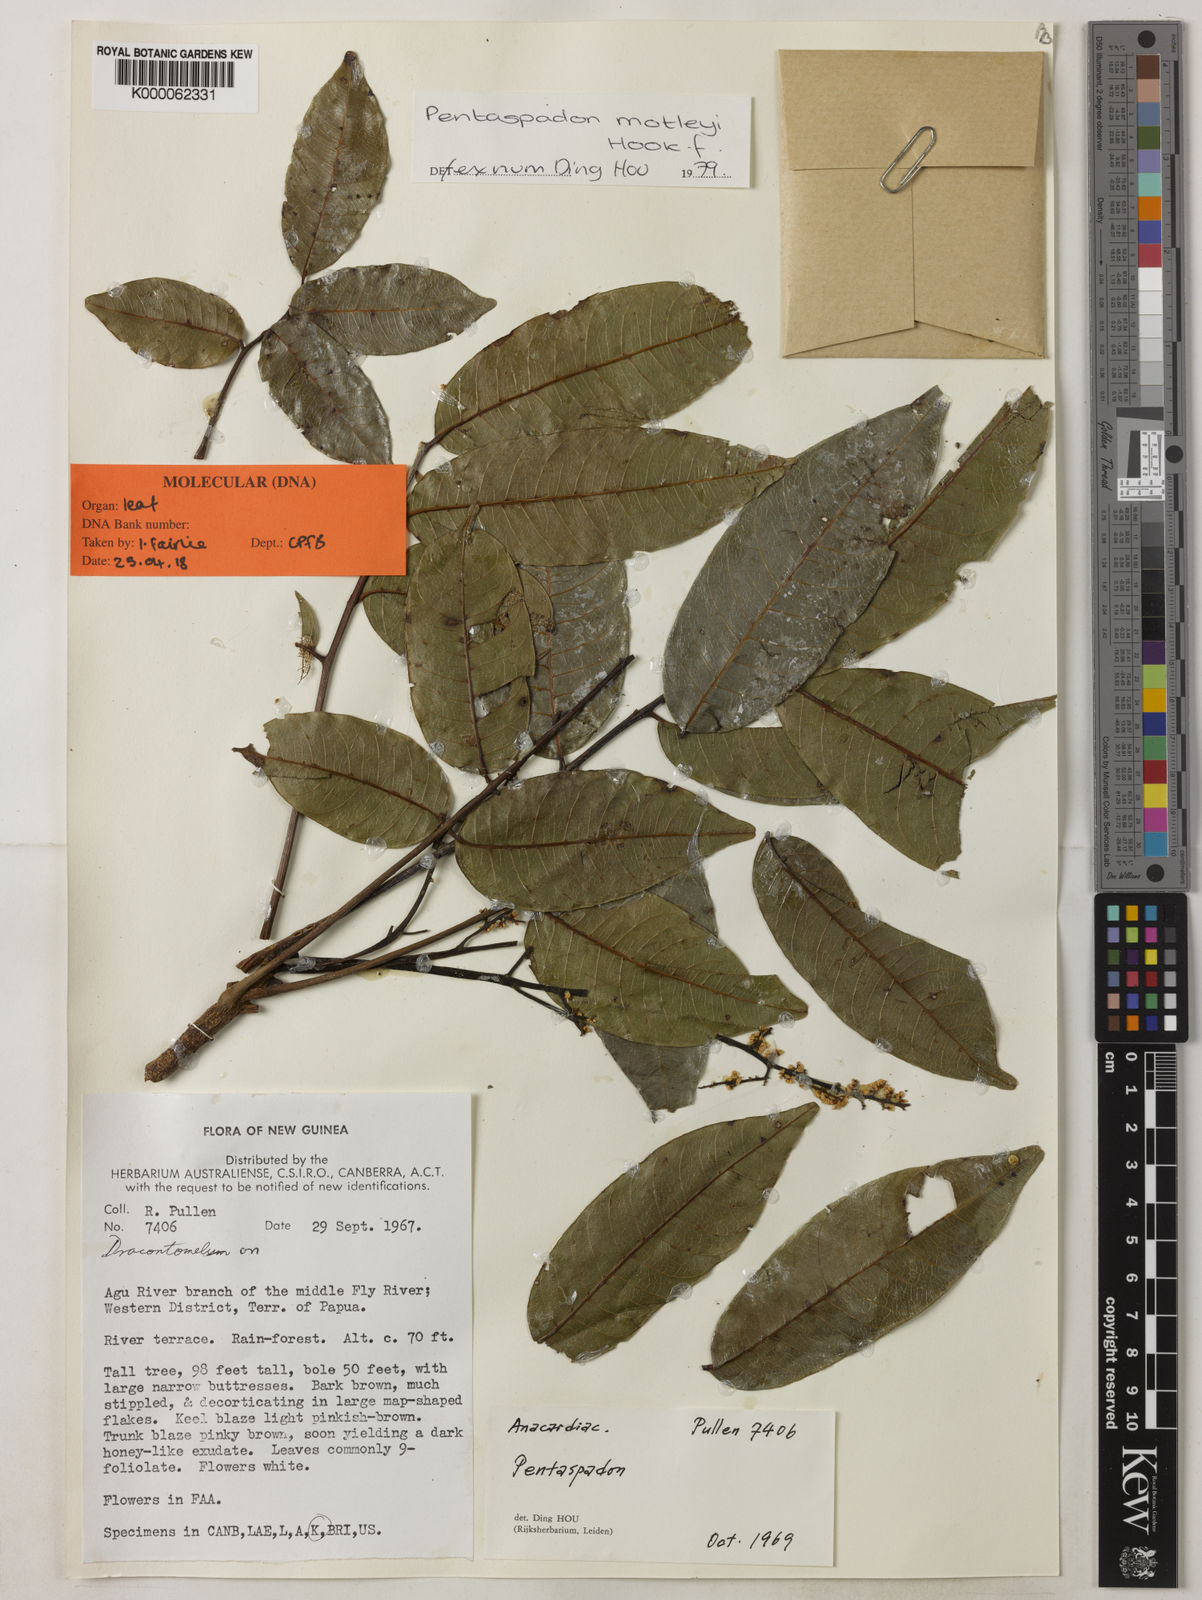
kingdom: Plantae
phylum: Tracheophyta
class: Magnoliopsida
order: Sapindales
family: Anacardiaceae
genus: Pentaspadon
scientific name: Pentaspadon motleyi
